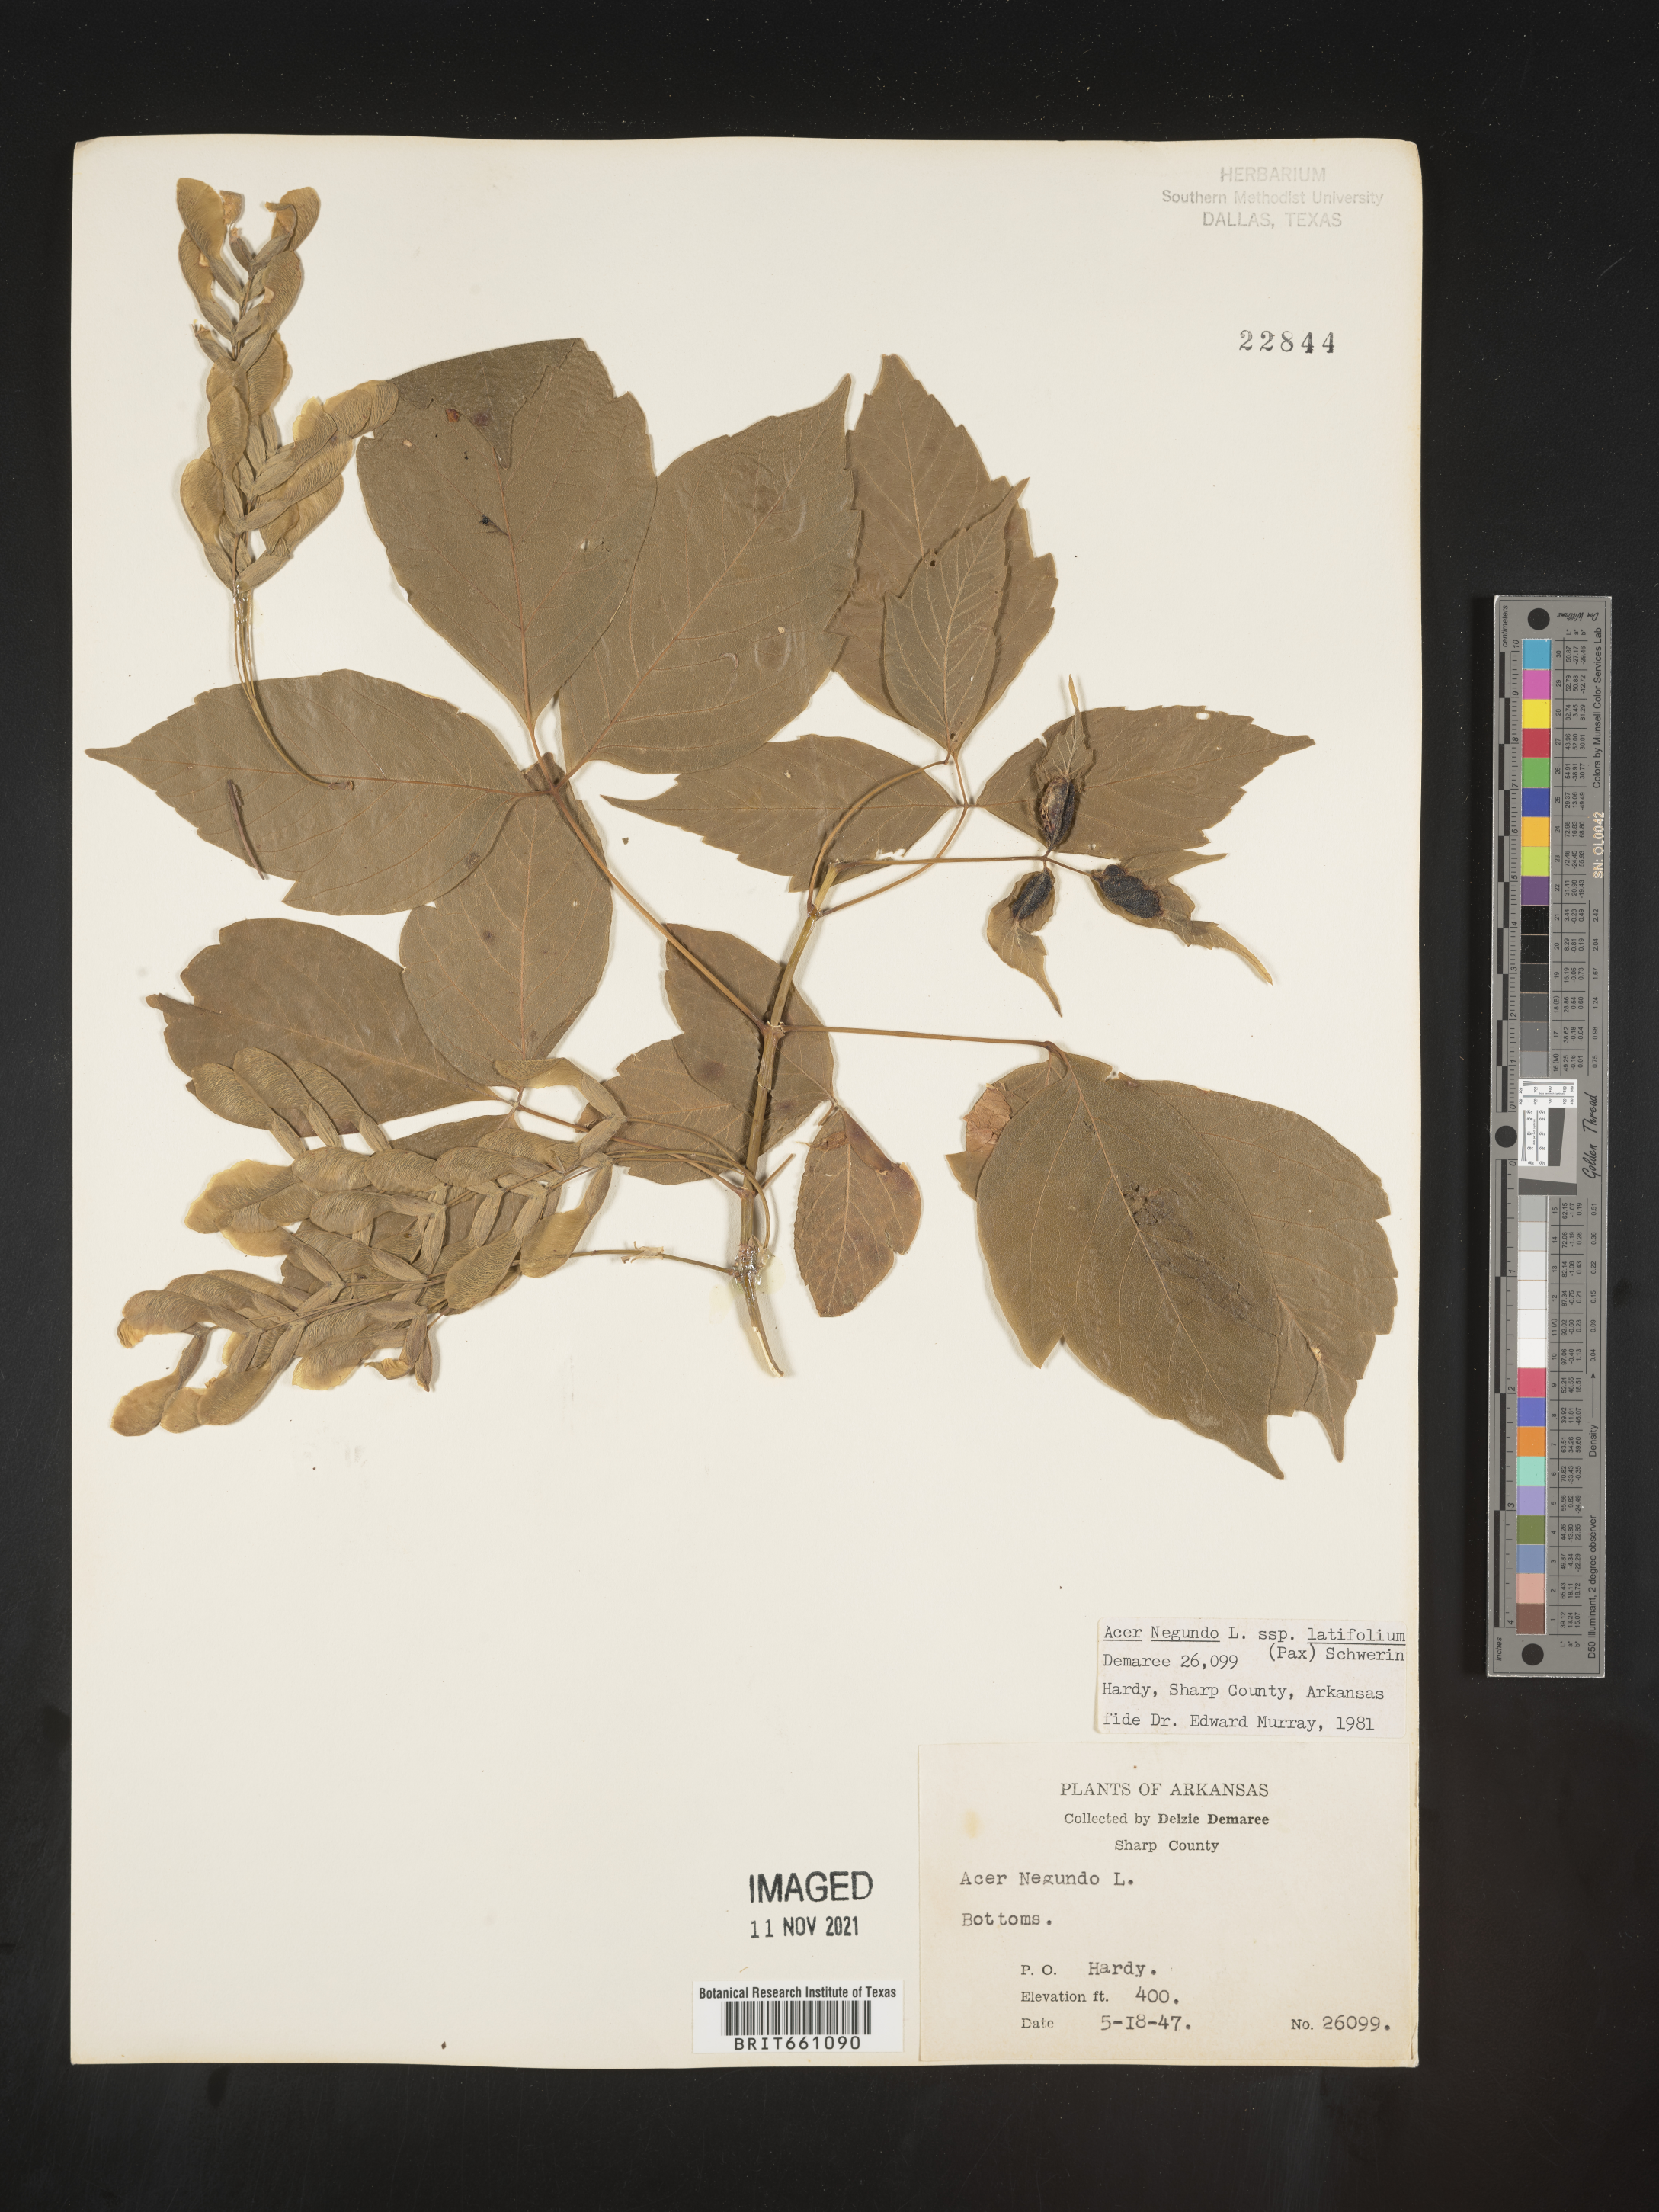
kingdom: Plantae
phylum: Tracheophyta
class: Magnoliopsida
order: Sapindales
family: Sapindaceae
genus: Acer
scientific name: Acer negundo
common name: Ashleaf maple
